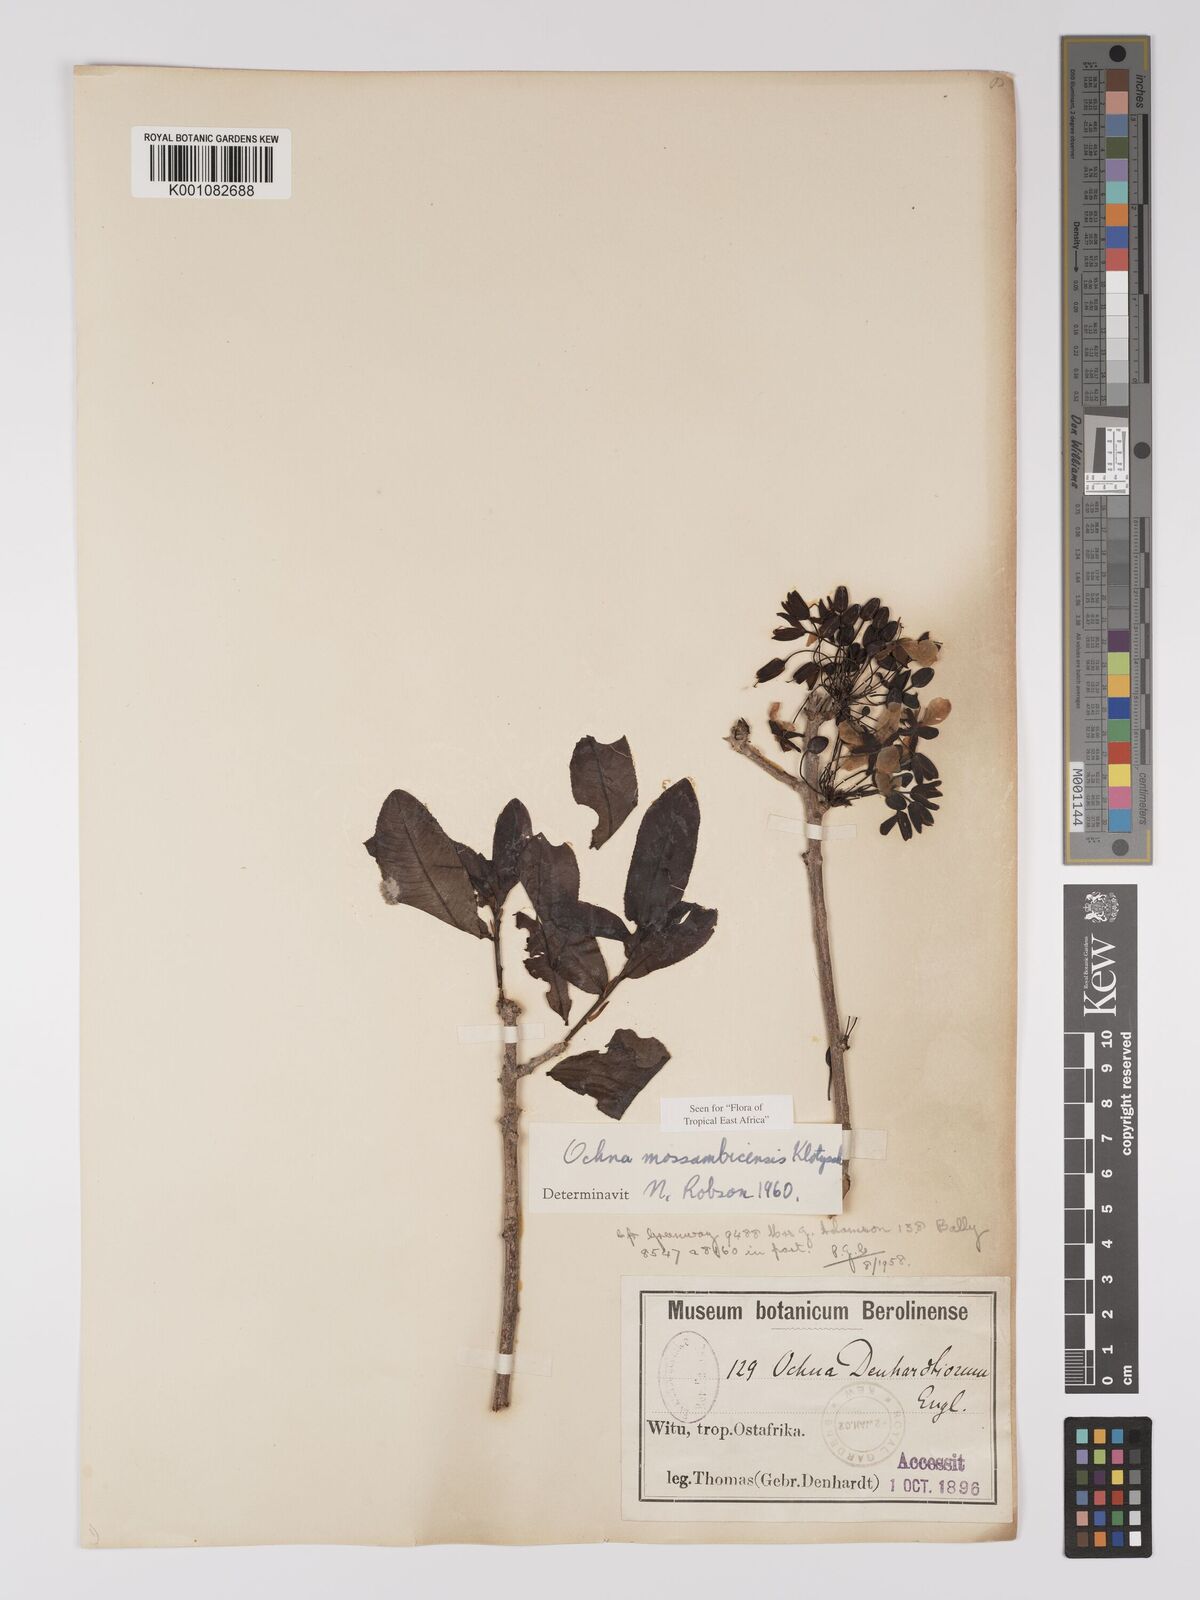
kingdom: Plantae
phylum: Tracheophyta
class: Magnoliopsida
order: Malpighiales
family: Ochnaceae
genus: Ochna
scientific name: Ochna atropurpurea
